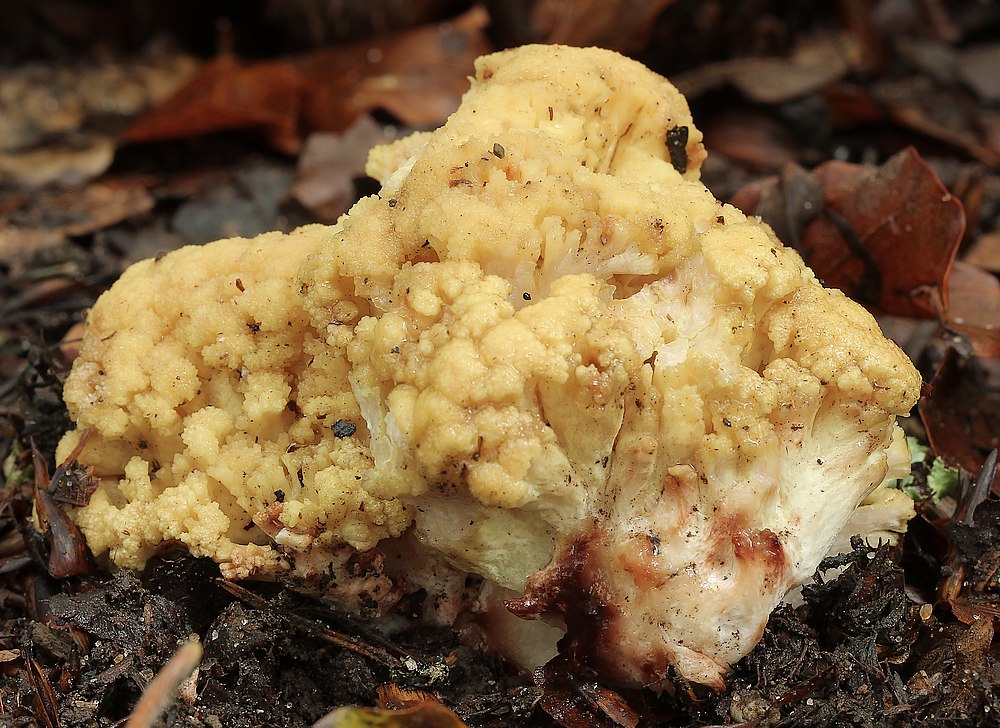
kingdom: Fungi
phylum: Basidiomycota
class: Agaricomycetes
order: Gomphales
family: Gomphaceae
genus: Ramaria
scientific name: Ramaria sanguinea
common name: blodplettet koralsvamp
